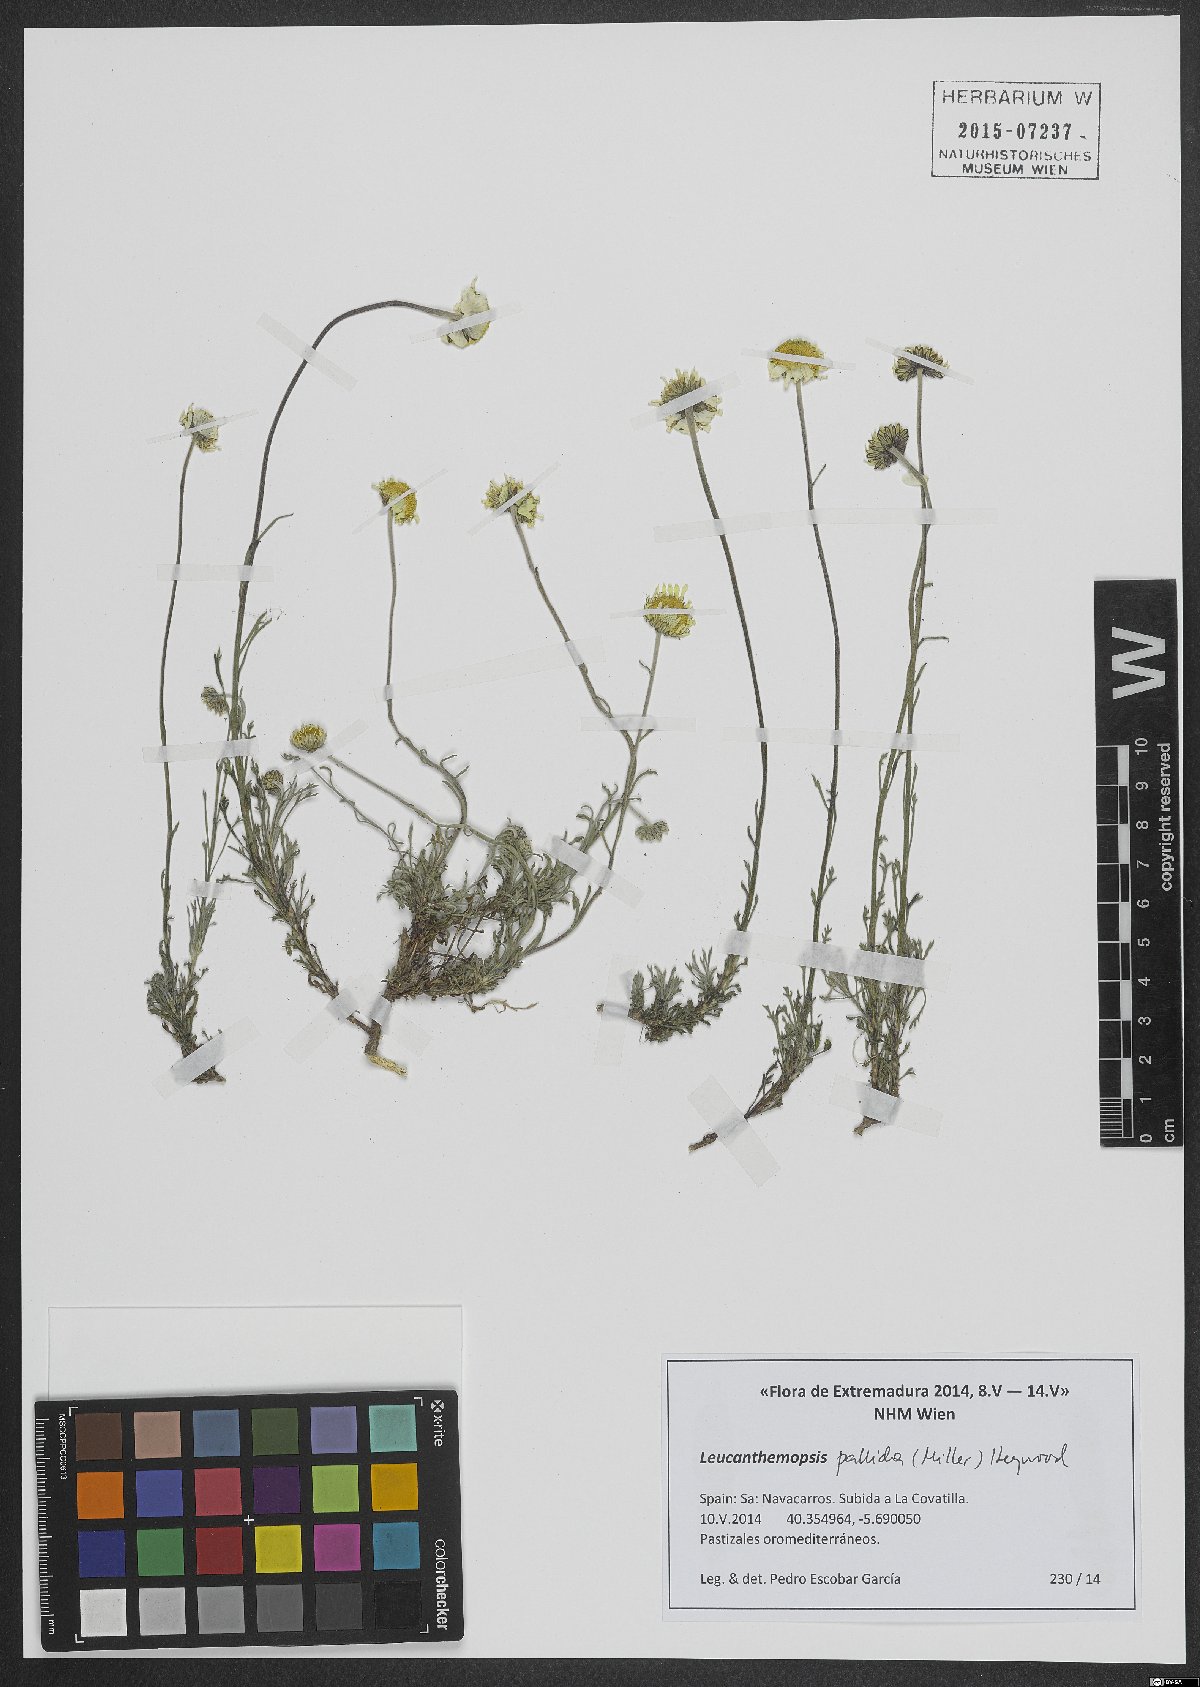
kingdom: Plantae
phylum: Tracheophyta
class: Magnoliopsida
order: Asterales
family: Asteraceae
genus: Leucanthemopsis
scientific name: Leucanthemopsis pallida
